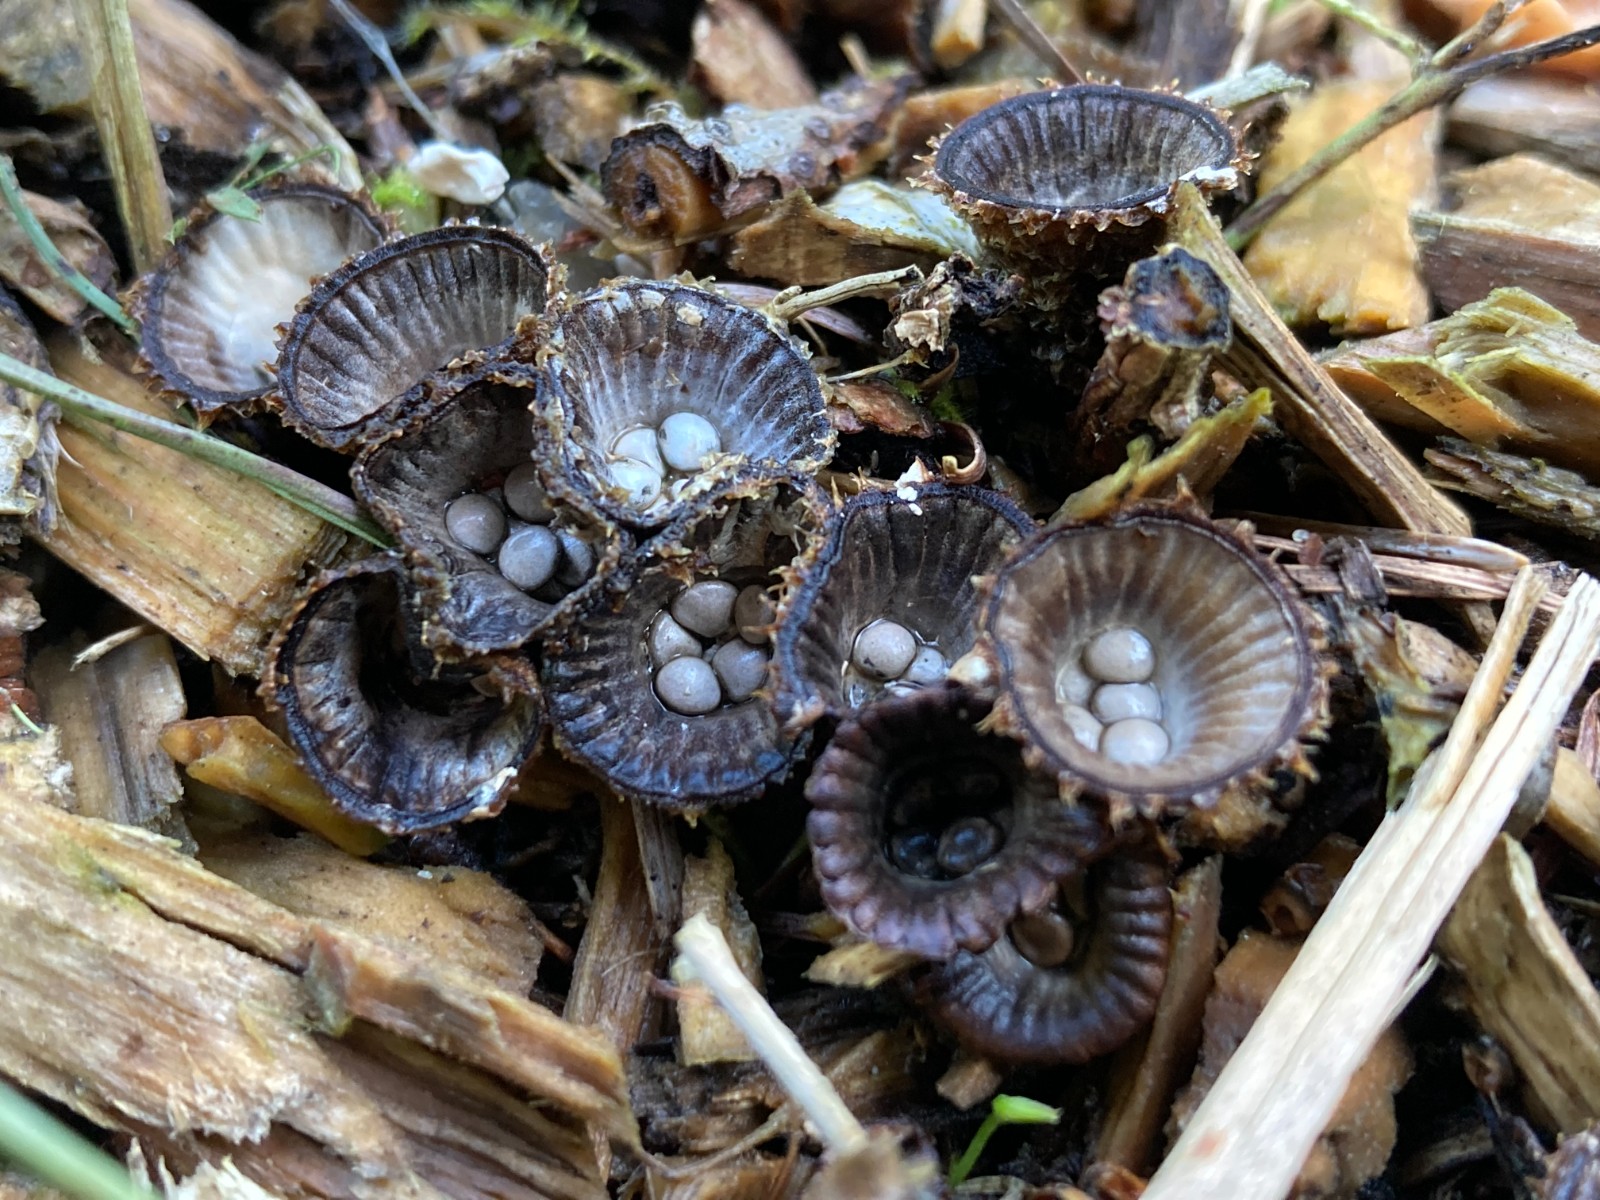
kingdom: Fungi
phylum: Basidiomycota
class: Agaricomycetes
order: Agaricales
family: Agaricaceae
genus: Cyathus
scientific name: Cyathus striatus
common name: stribet redesvamp
